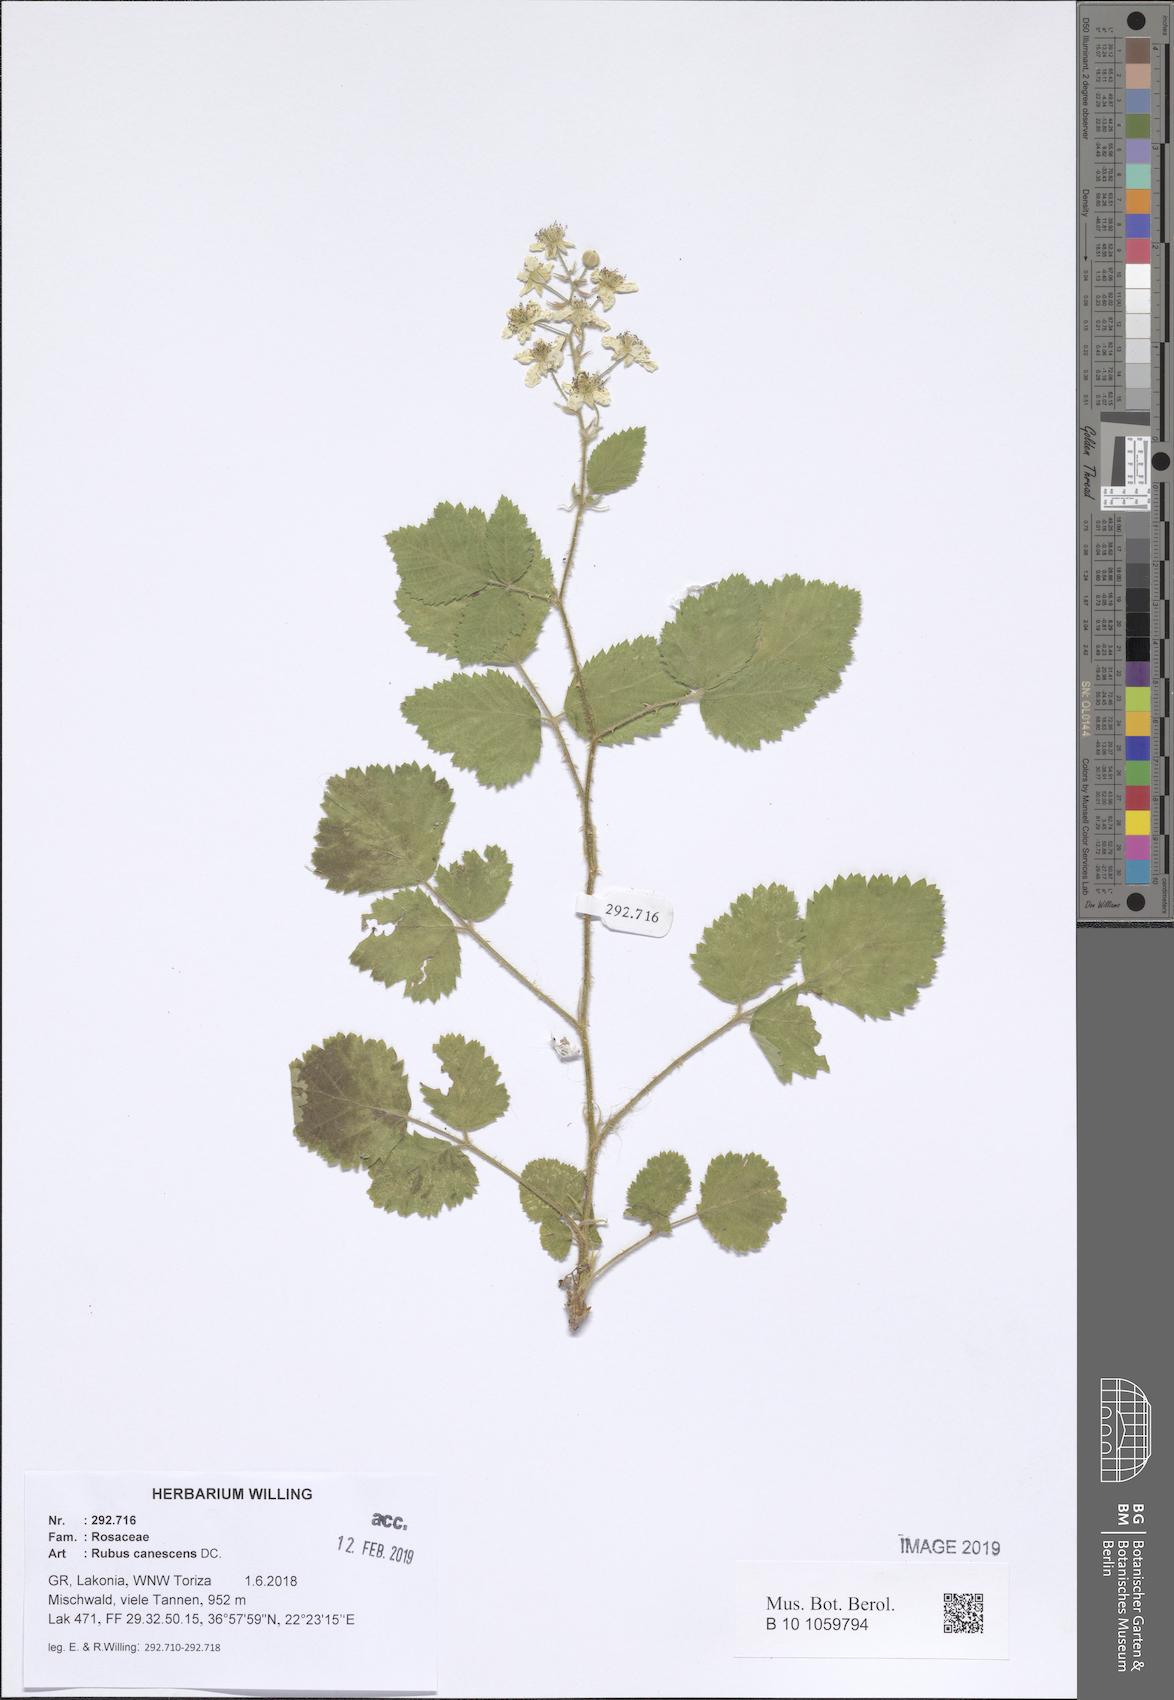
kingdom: Plantae
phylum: Tracheophyta
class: Magnoliopsida
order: Rosales
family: Rosaceae
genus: Rubus
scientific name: Rubus canescens
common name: Wooly blackberry
